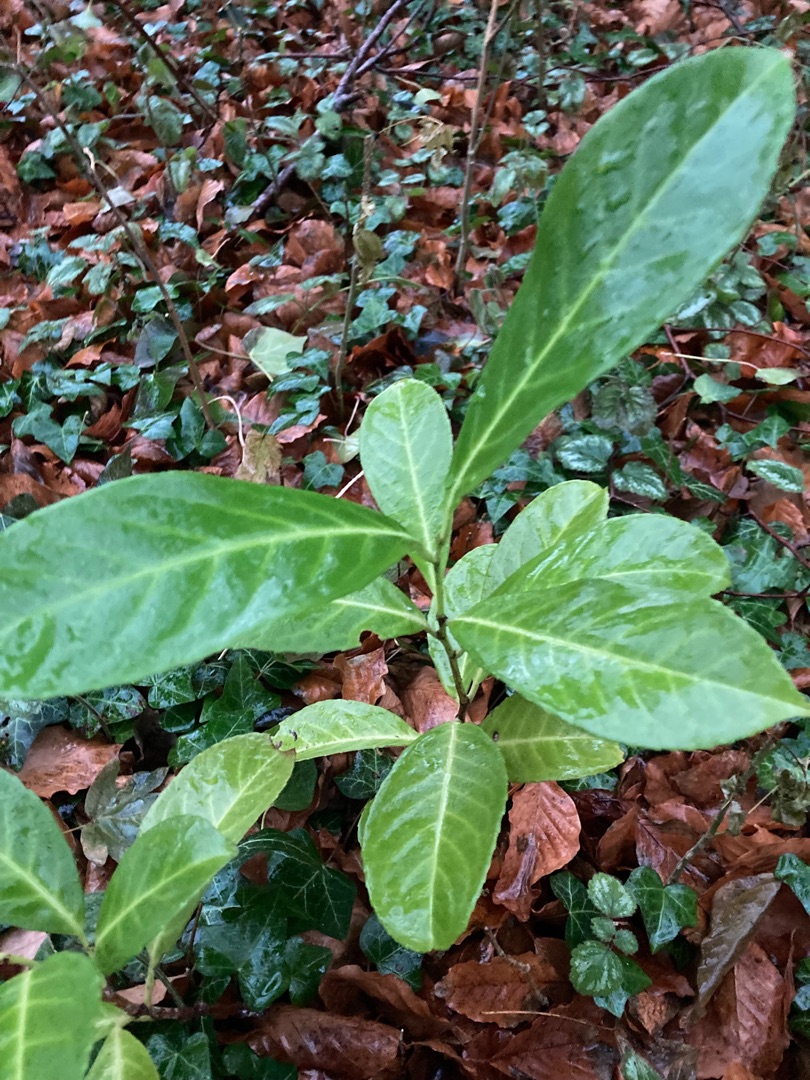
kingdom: Plantae
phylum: Tracheophyta
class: Magnoliopsida
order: Rosales
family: Rosaceae
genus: Prunus
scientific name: Prunus laurocerasus
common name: Laurbærkirsebær
